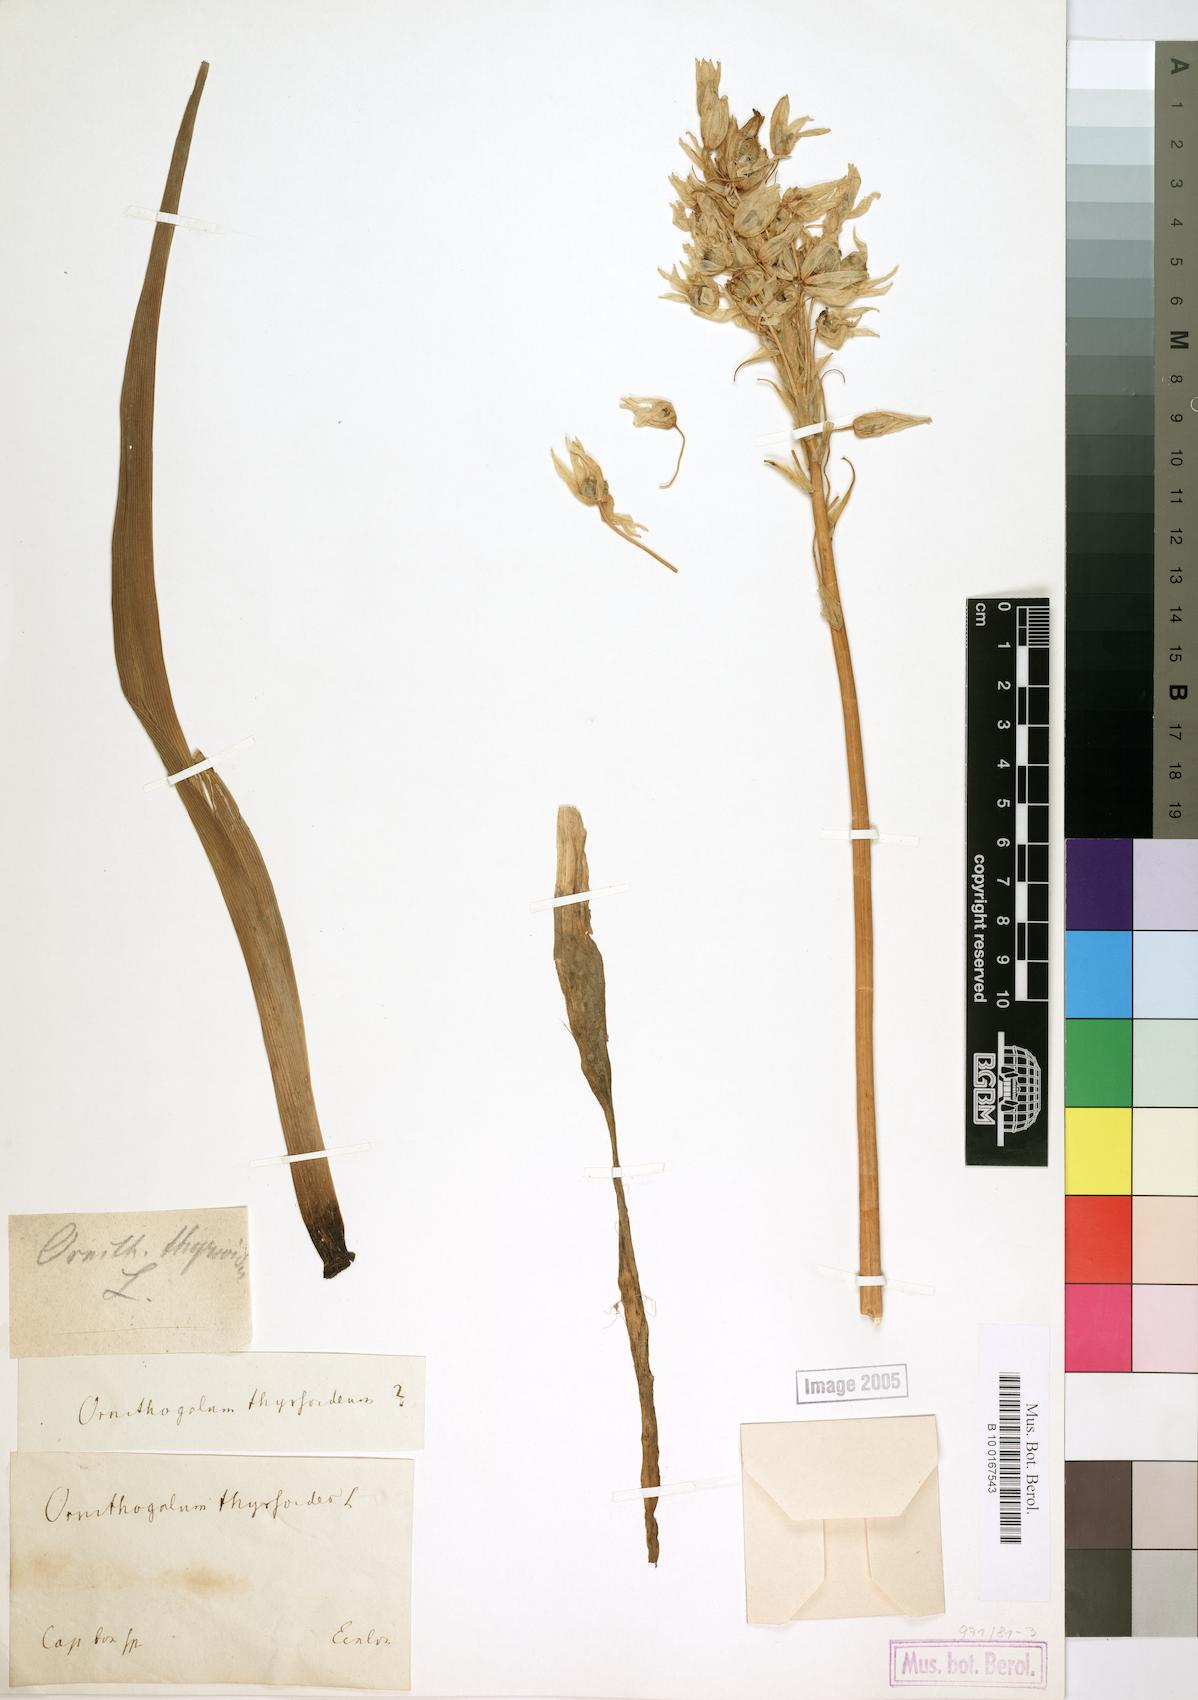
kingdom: Plantae
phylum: Tracheophyta
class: Liliopsida
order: Asparagales
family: Asparagaceae
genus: Ornithogalum
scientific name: Ornithogalum thyrsoides
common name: Chincherinchee
